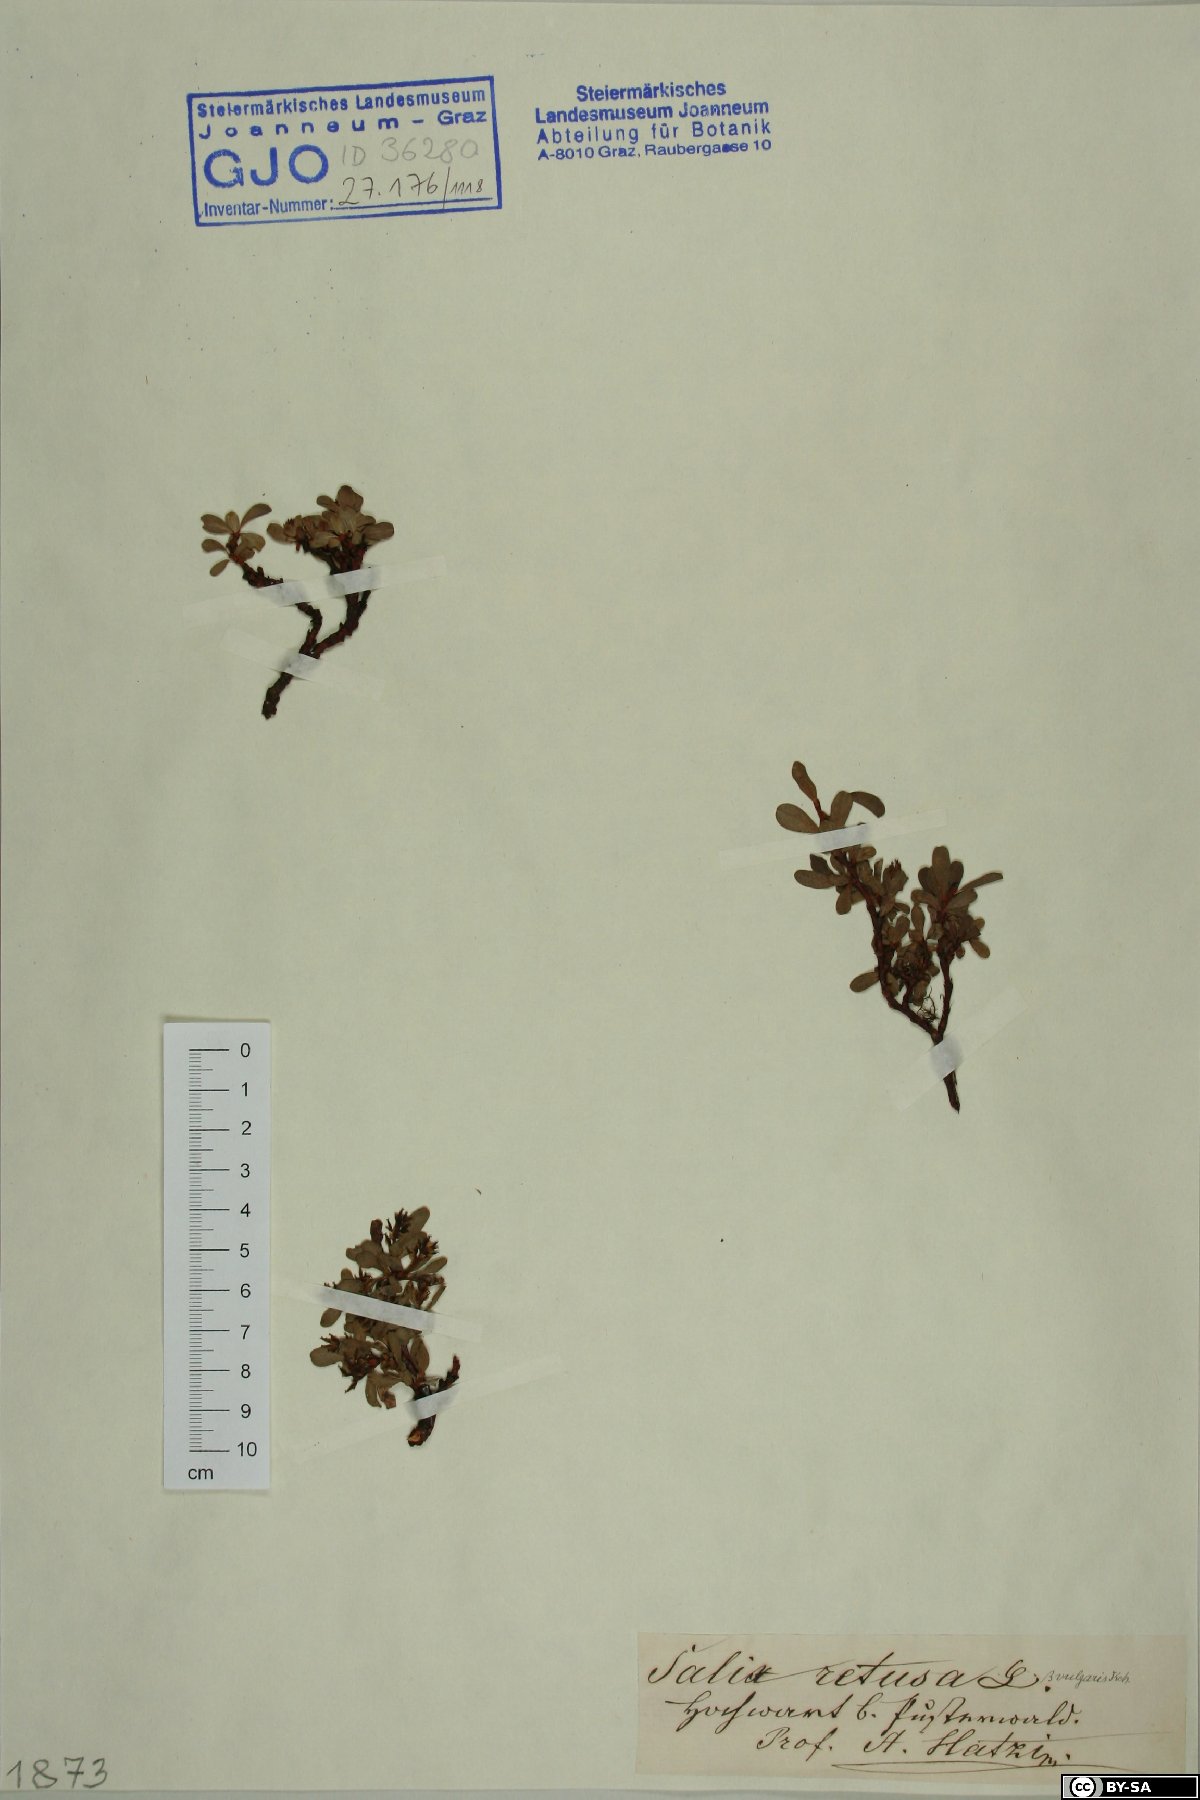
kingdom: Plantae
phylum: Tracheophyta
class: Magnoliopsida
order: Malpighiales
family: Salicaceae
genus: Salix
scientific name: Salix retusa
